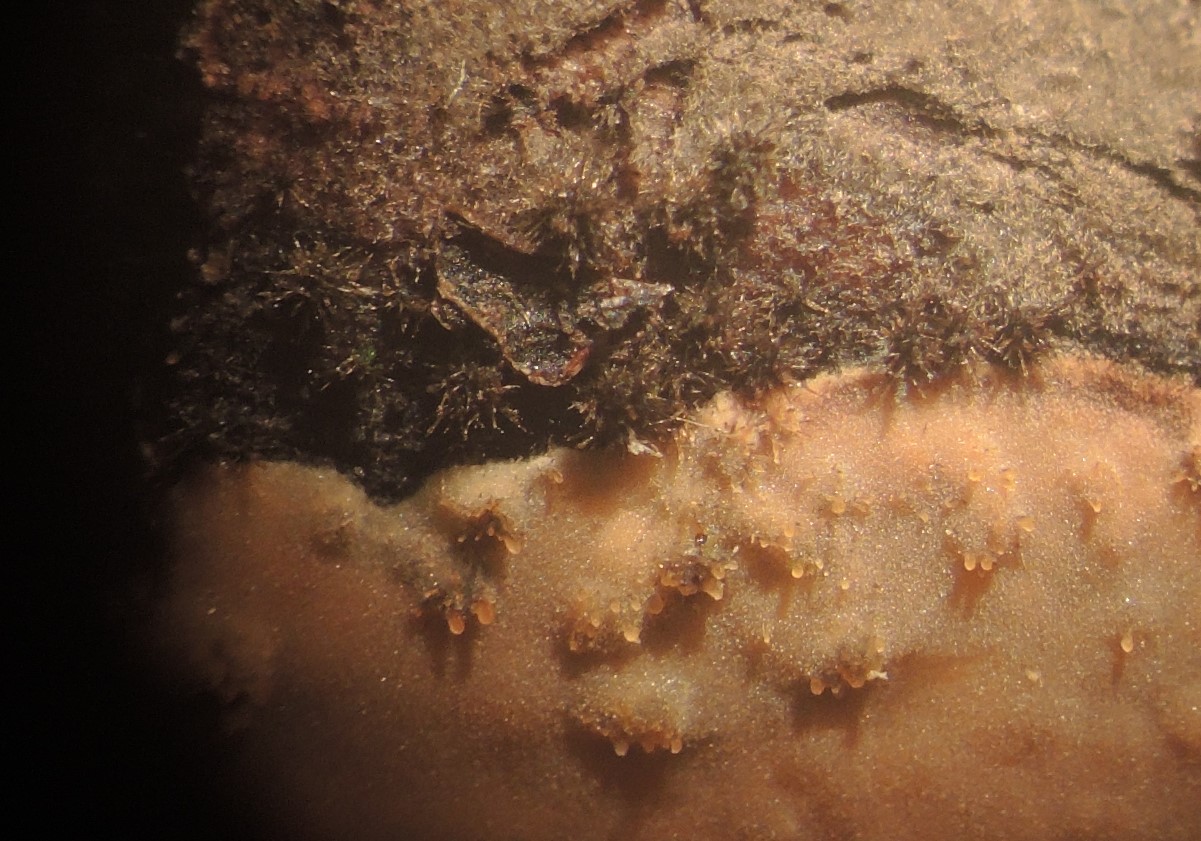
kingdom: Fungi
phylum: Ascomycota
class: Sordariomycetes
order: Sordariales
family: Helminthosphaeriaceae
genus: Echinosphaeria
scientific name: Echinosphaeria canescens
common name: brun børstekerne
